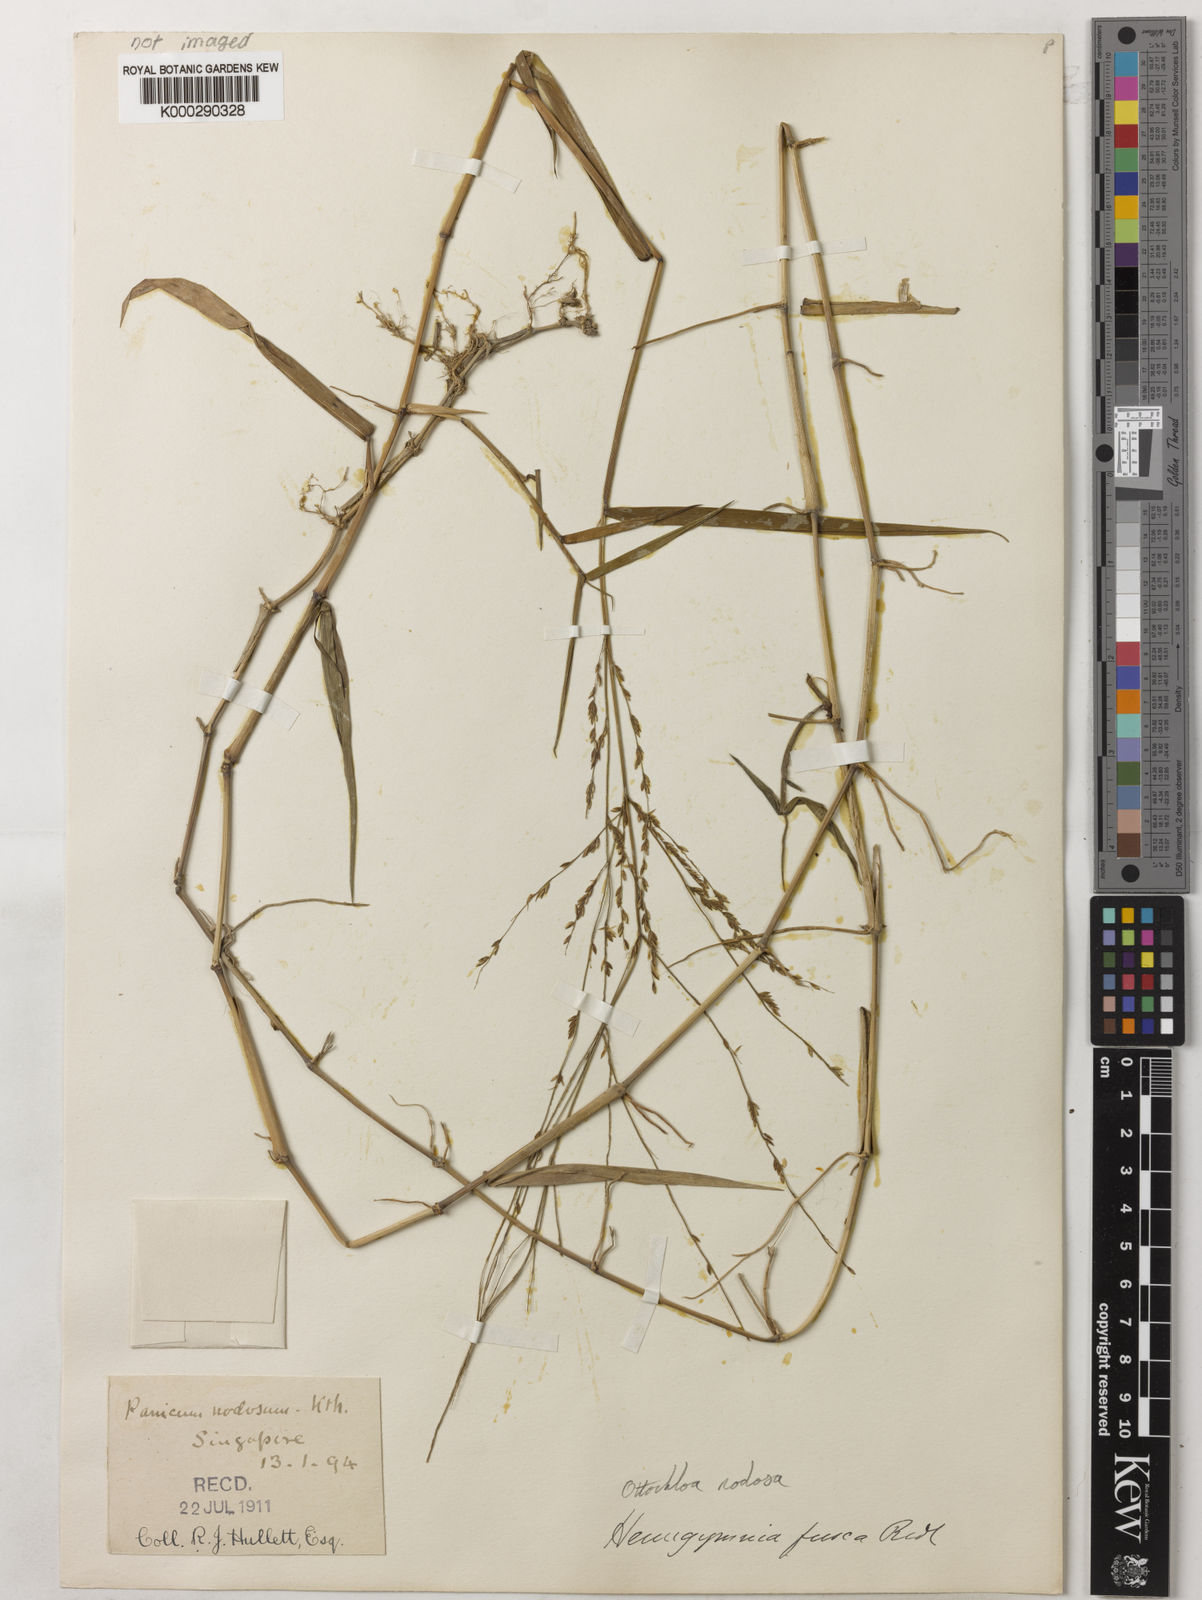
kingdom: Plantae
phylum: Tracheophyta
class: Liliopsida
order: Poales
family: Poaceae
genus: Ottochloa
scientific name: Ottochloa nodosa
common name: Slender-panic grass
